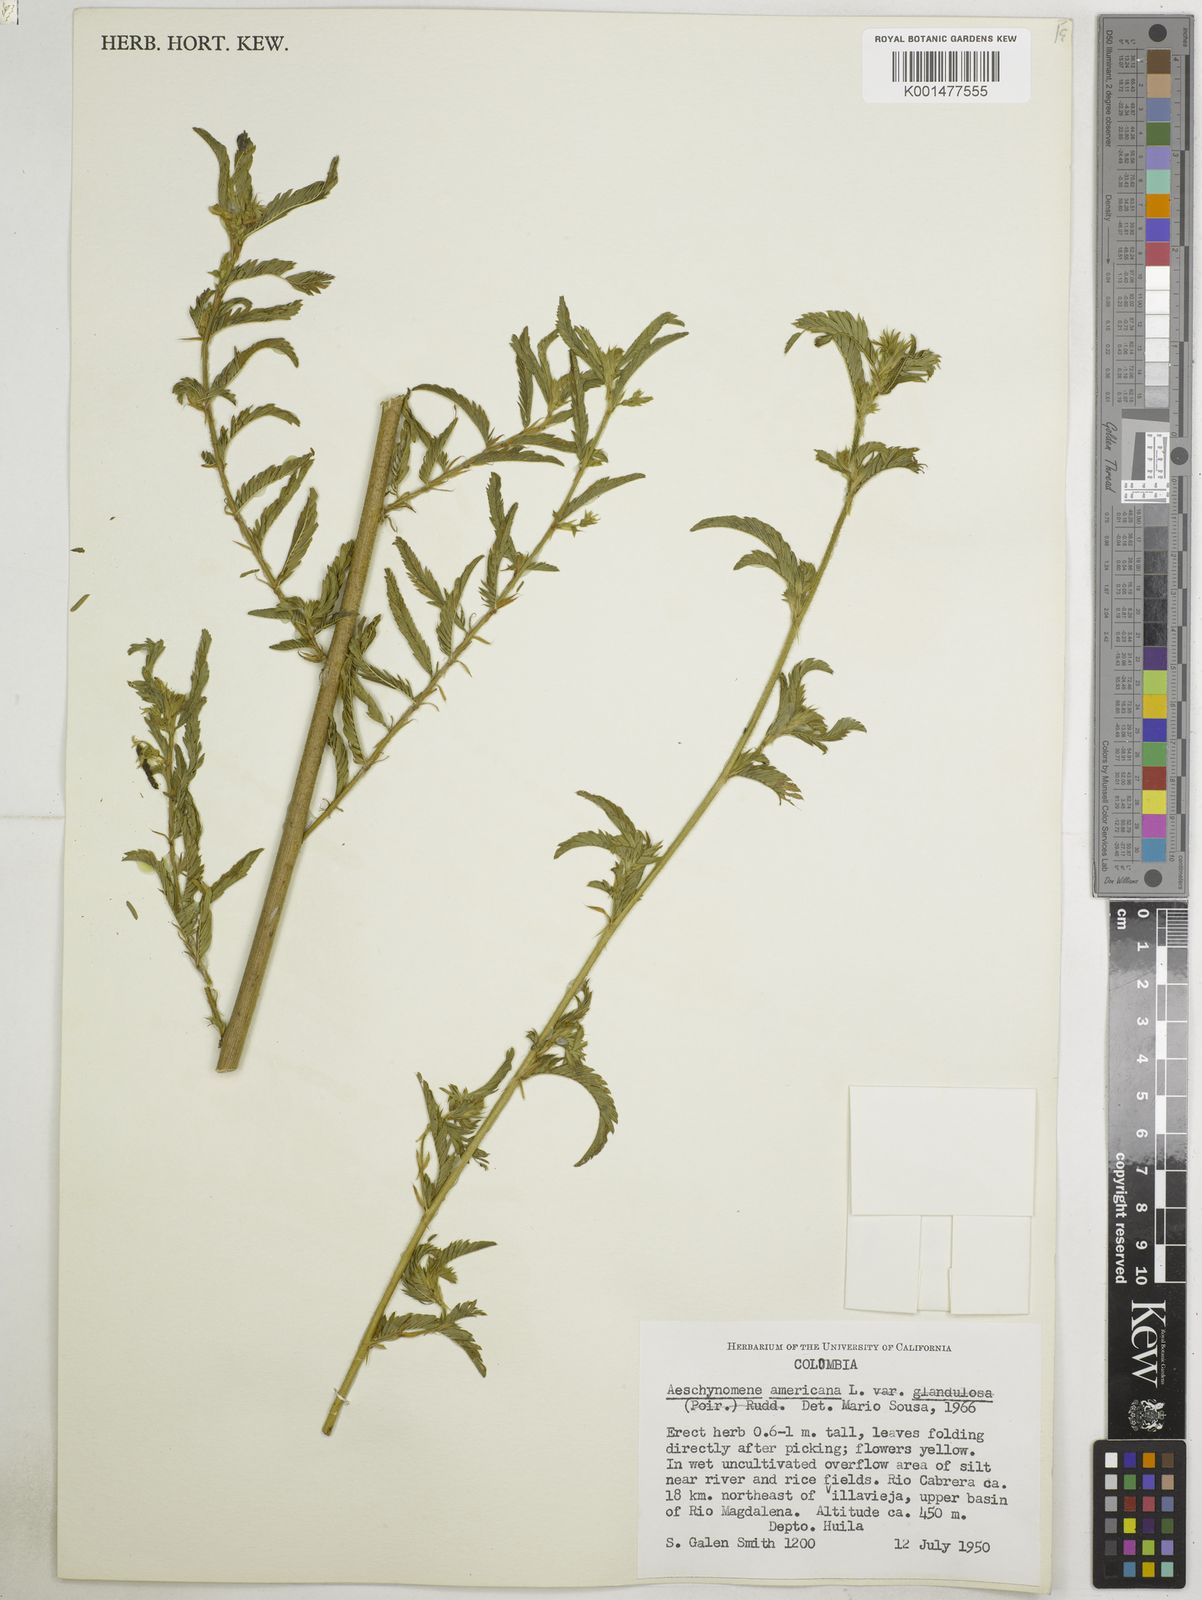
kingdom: Plantae
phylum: Tracheophyta
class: Magnoliopsida
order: Fabales
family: Fabaceae
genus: Aeschynomene
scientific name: Aeschynomene americana
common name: Joint-vetch
